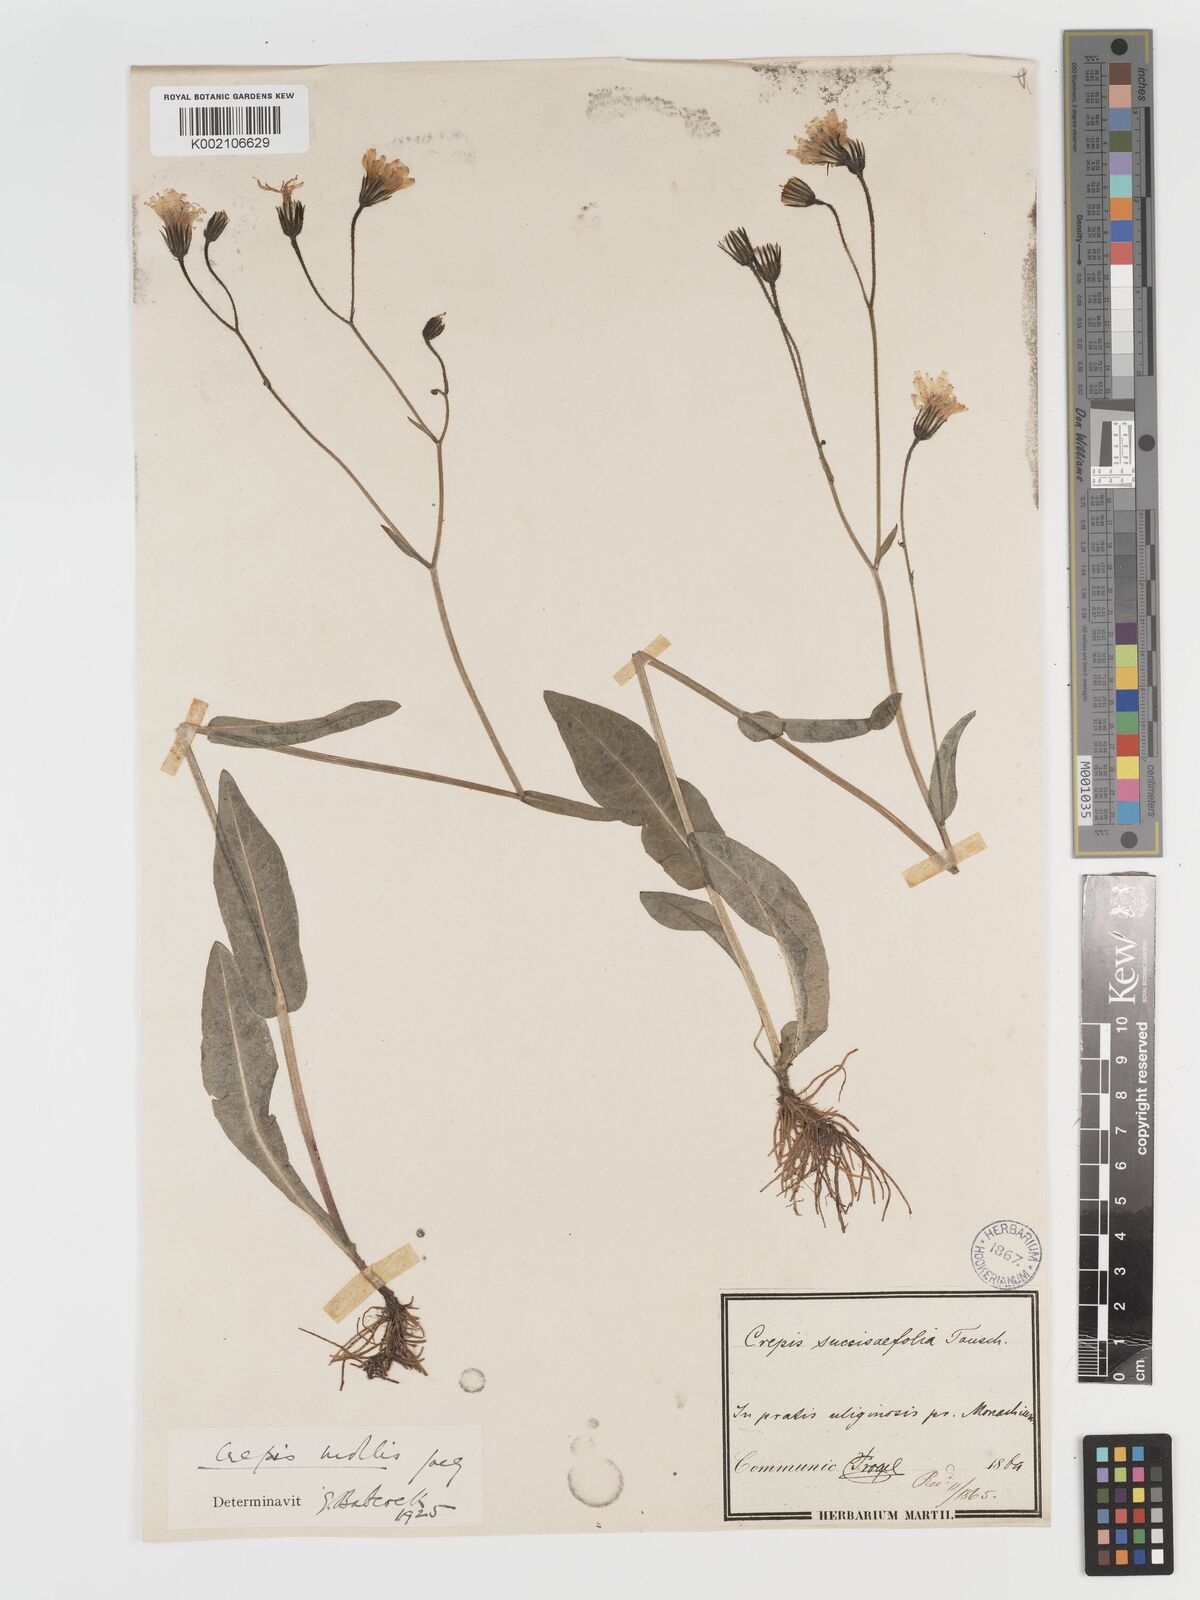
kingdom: Plantae
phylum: Tracheophyta
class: Magnoliopsida
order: Asterales
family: Asteraceae
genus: Crepis
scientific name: Crepis mollis
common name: Northern hawk's-beard
